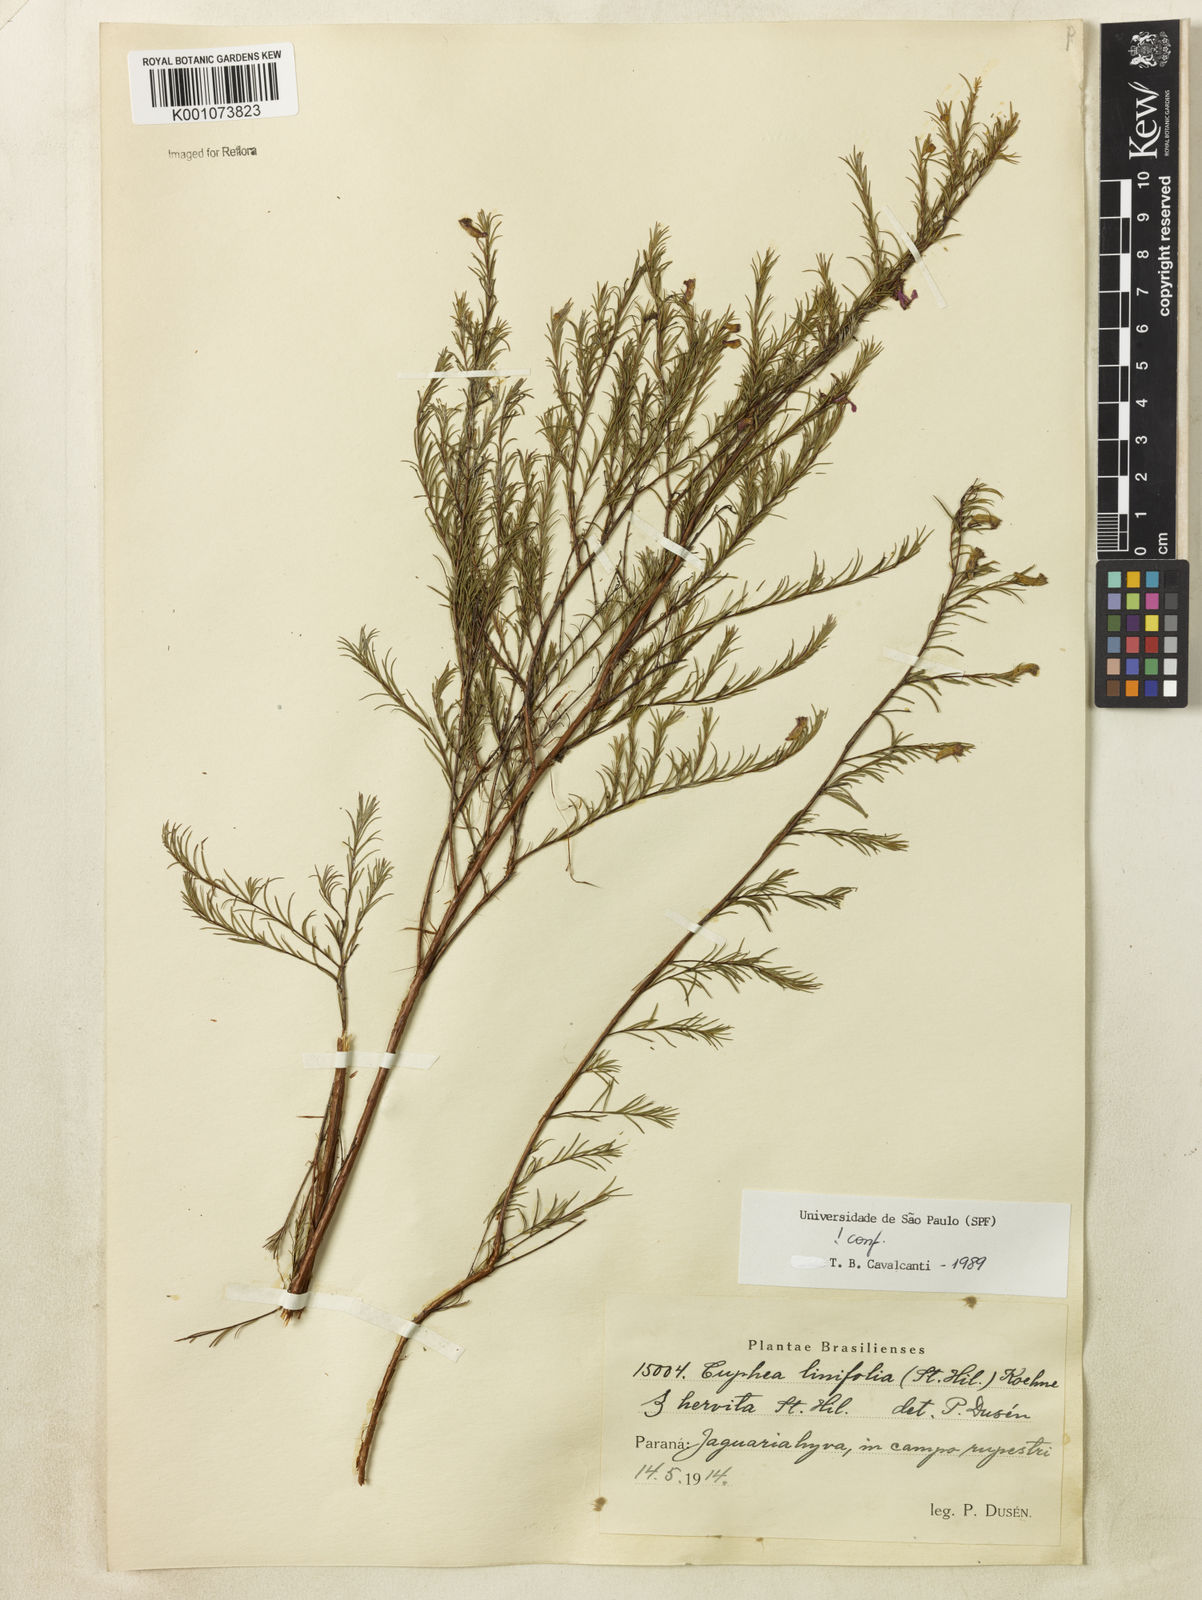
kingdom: Plantae
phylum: Tracheophyta
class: Magnoliopsida
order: Myrtales
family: Lythraceae
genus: Cuphea
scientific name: Cuphea linifolia
